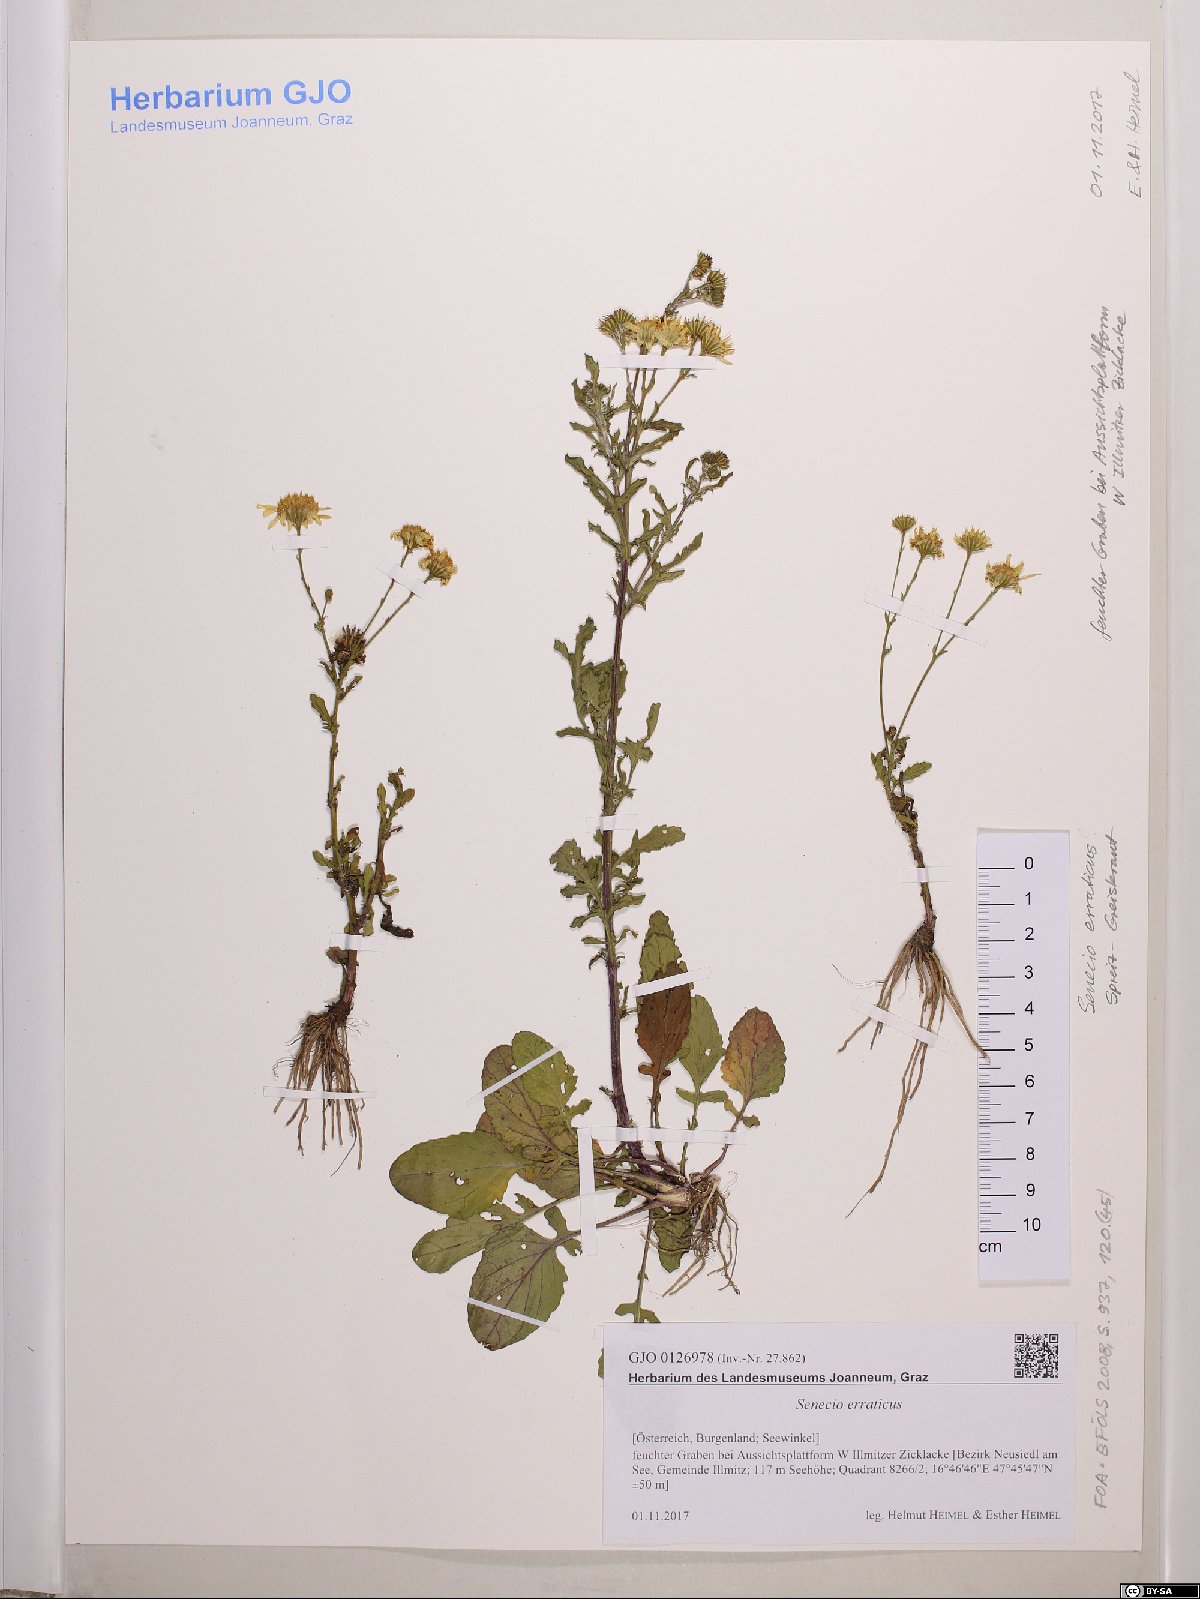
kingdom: Plantae
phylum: Tracheophyta
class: Magnoliopsida
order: Asterales
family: Asteraceae
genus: Jacobaea
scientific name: Jacobaea erratica
